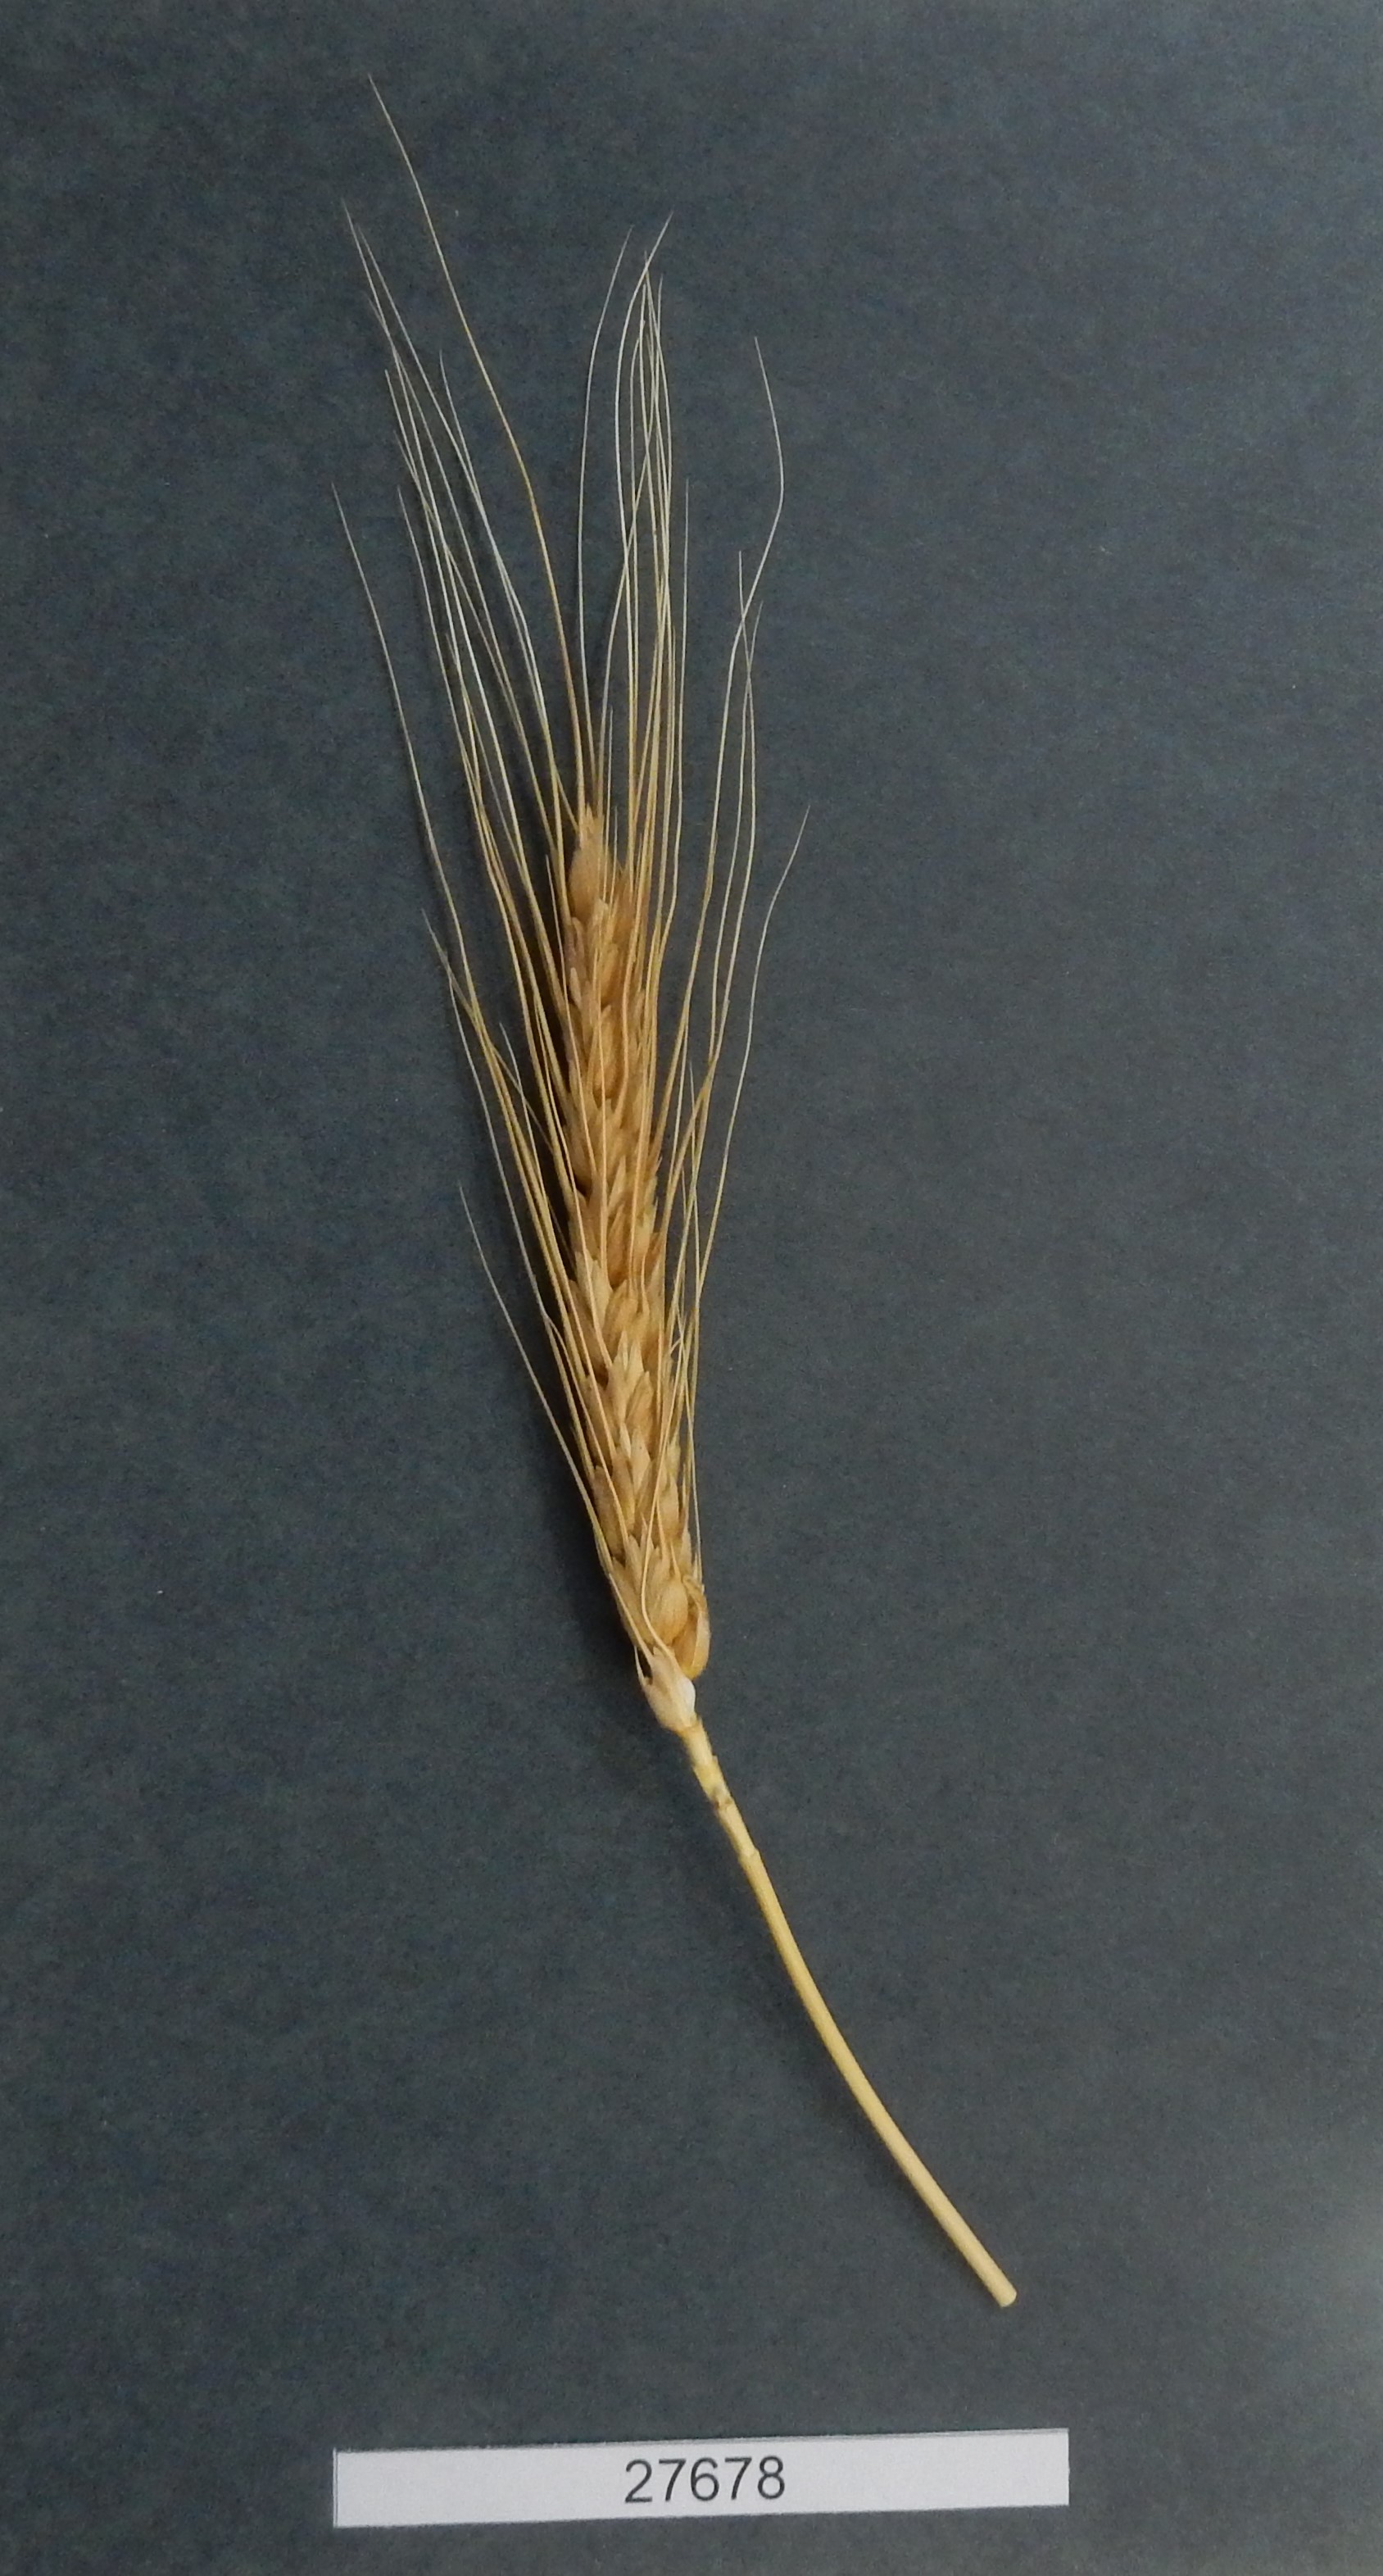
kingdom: Plantae
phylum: Tracheophyta
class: Liliopsida
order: Poales
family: Poaceae
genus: Triticum
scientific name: Triticum aestivum
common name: Common wheat
